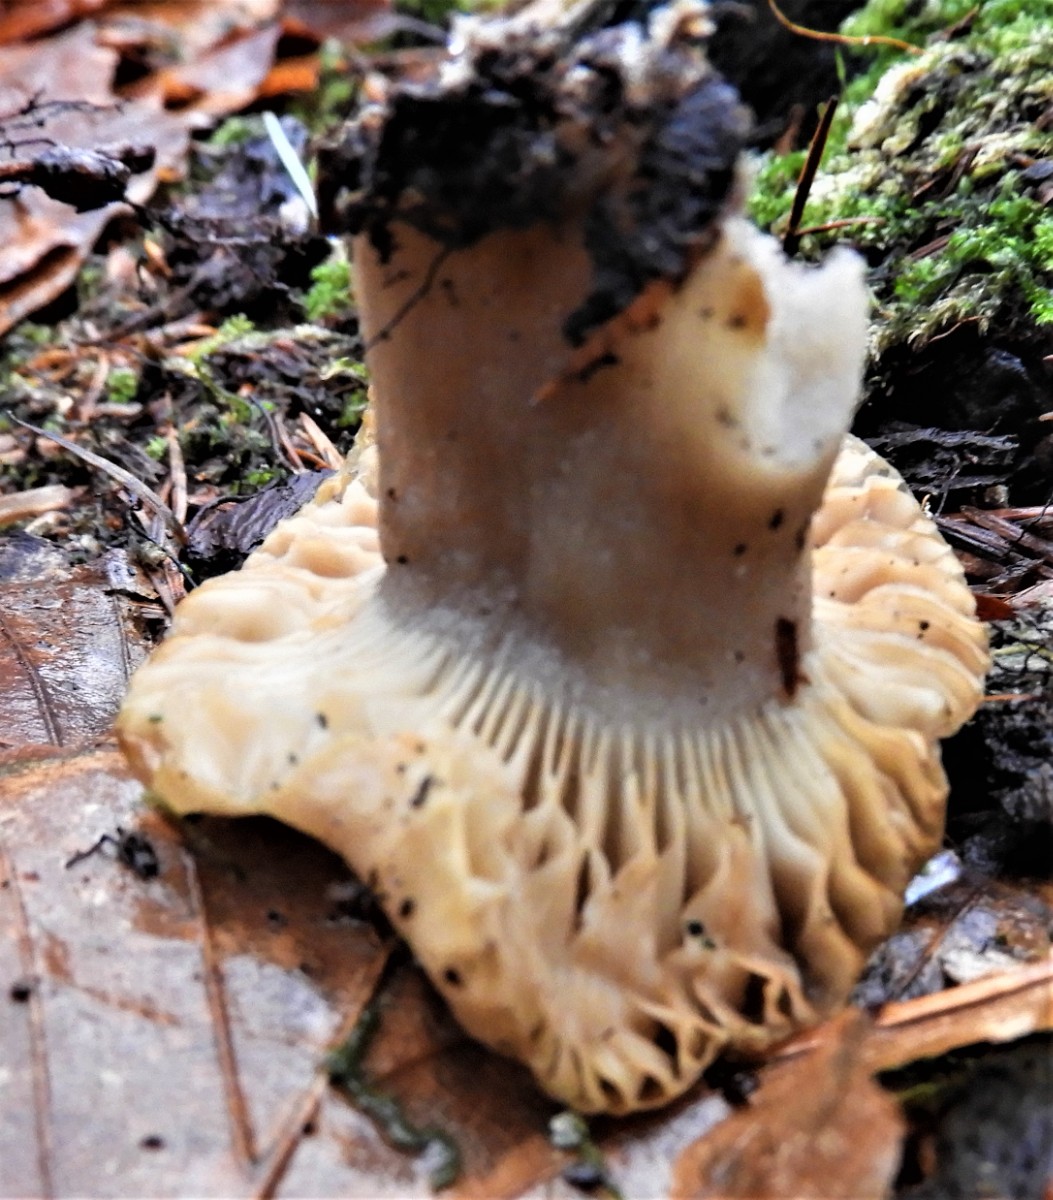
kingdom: Fungi
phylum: Basidiomycota
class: Agaricomycetes
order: Russulales
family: Russulaceae
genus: Russula
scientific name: Russula
